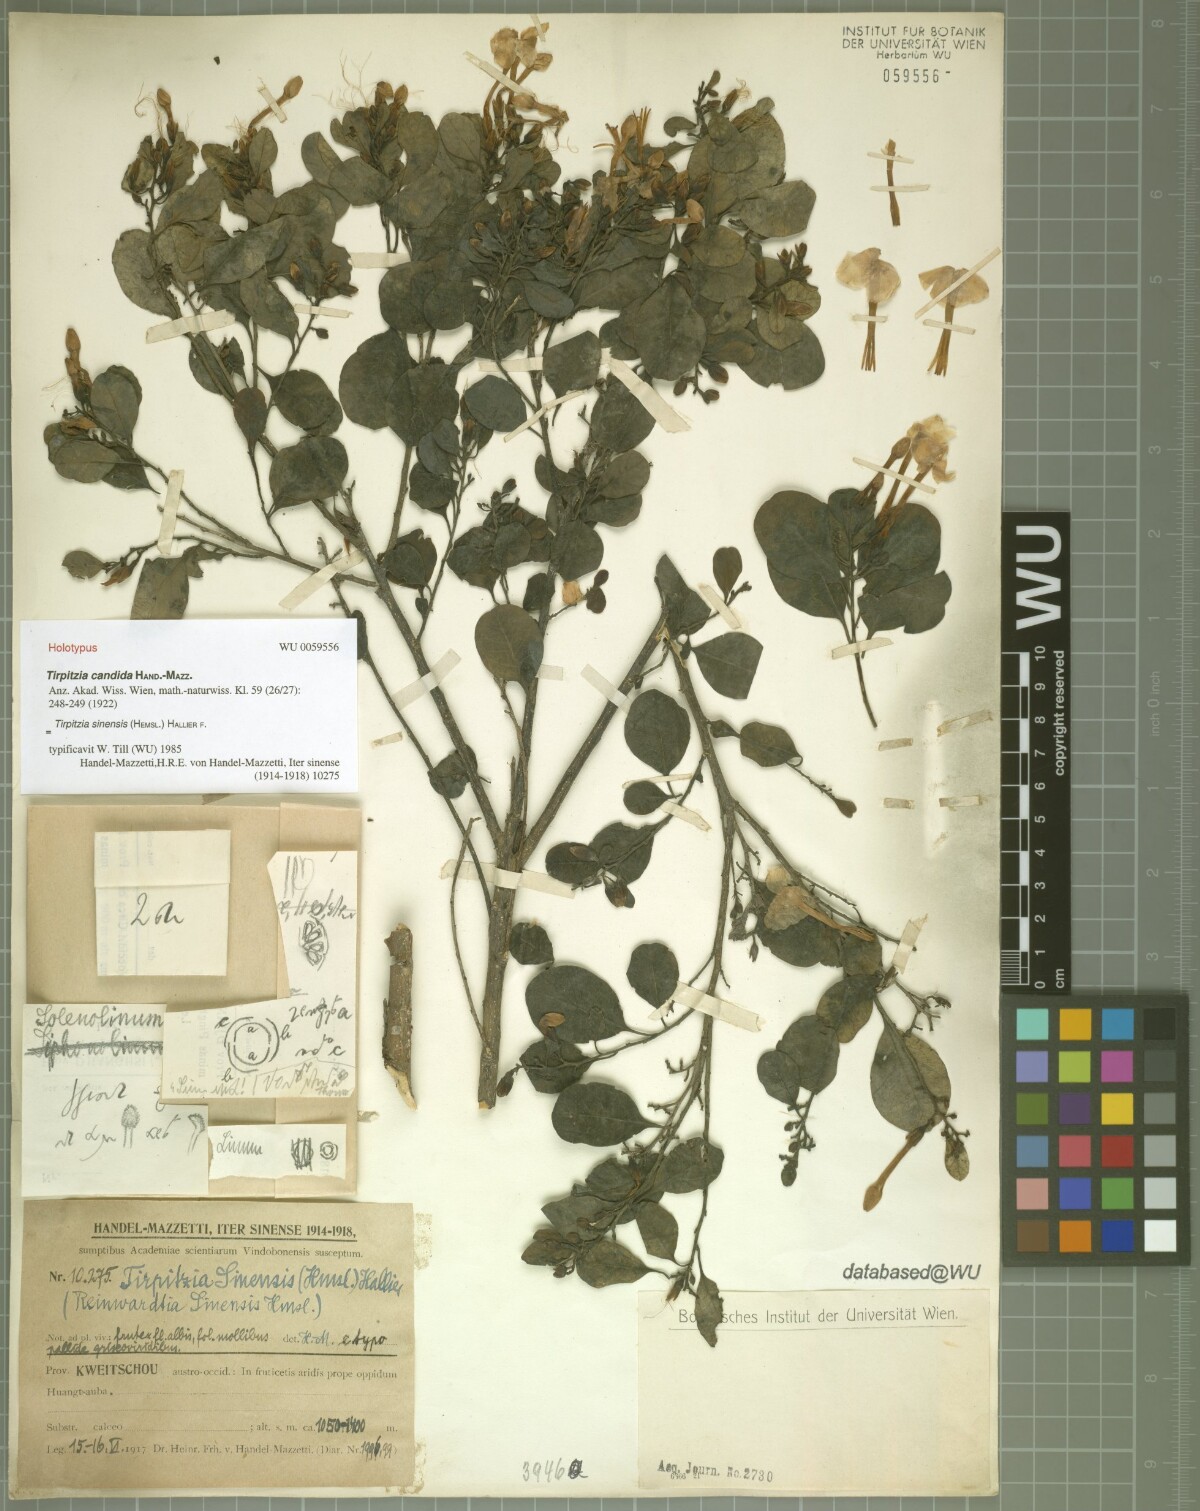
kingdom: Plantae
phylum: Tracheophyta
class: Magnoliopsida
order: Malpighiales
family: Linaceae
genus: Tirpitzia
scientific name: Tirpitzia sinensis
